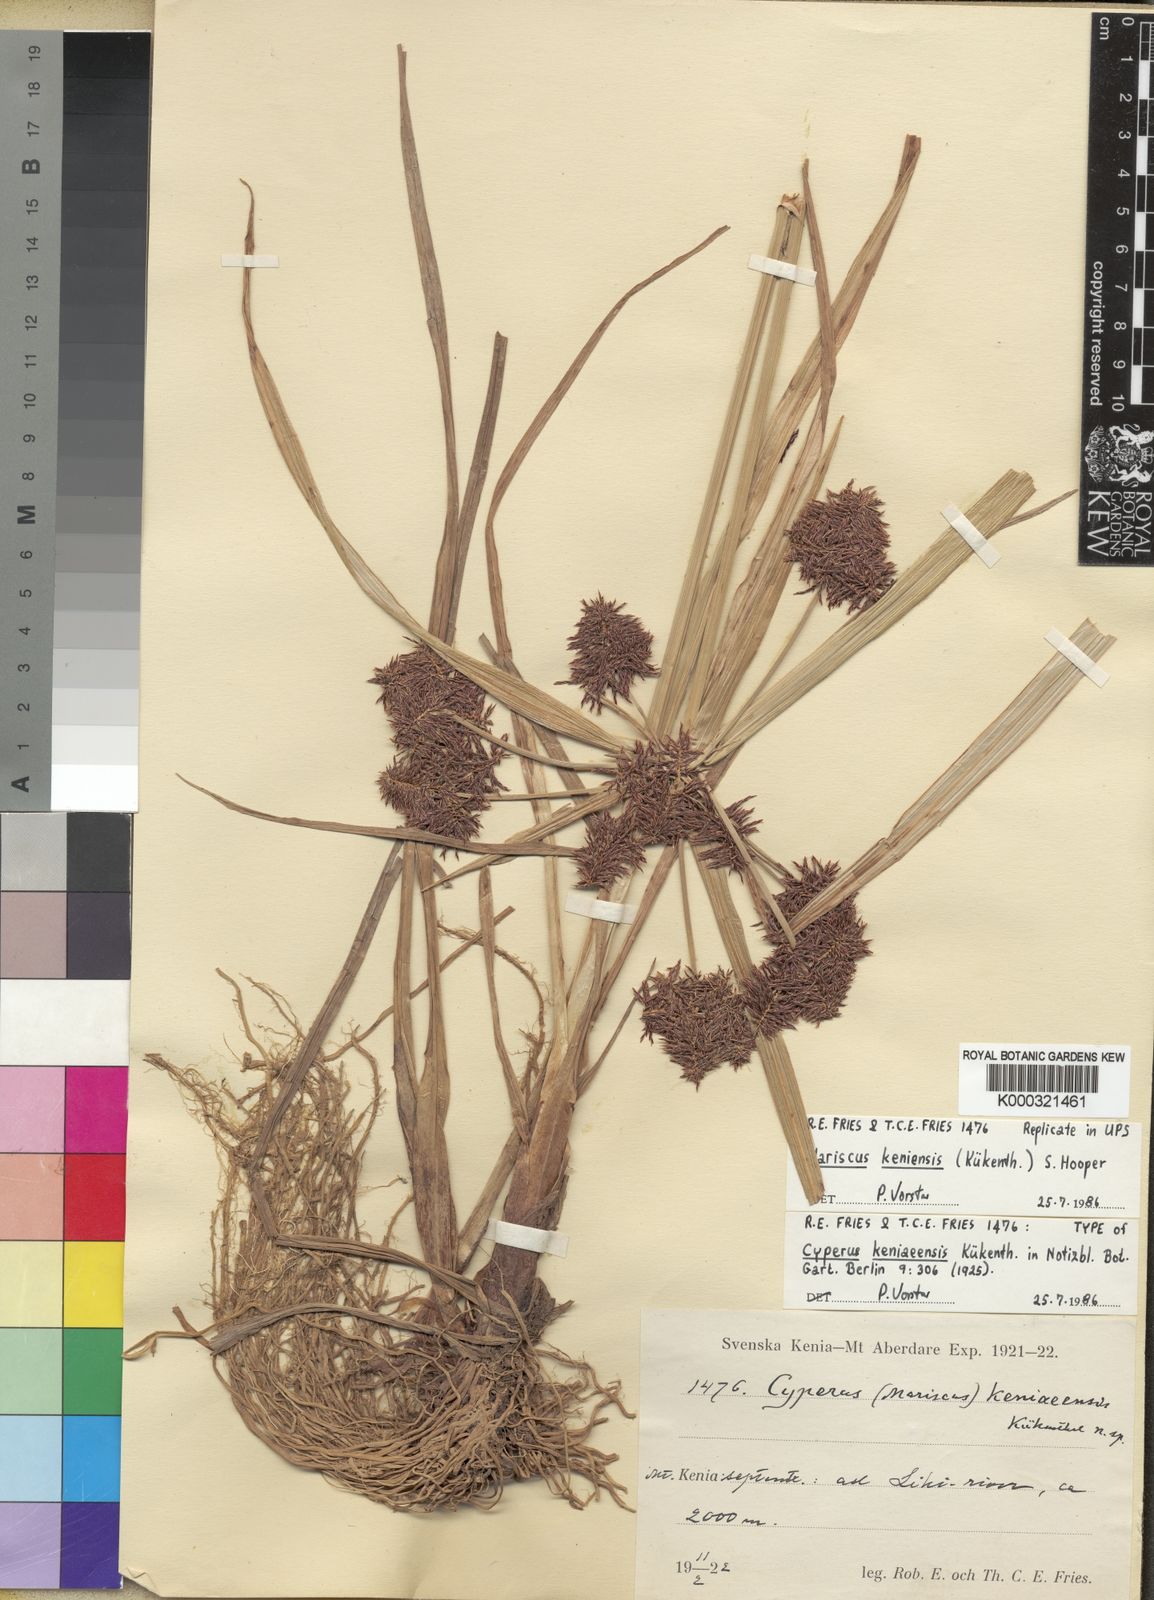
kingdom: Plantae
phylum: Tracheophyta
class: Liliopsida
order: Poales
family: Cyperaceae
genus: Cyperus
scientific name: Cyperus distans
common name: Slender cyperus
